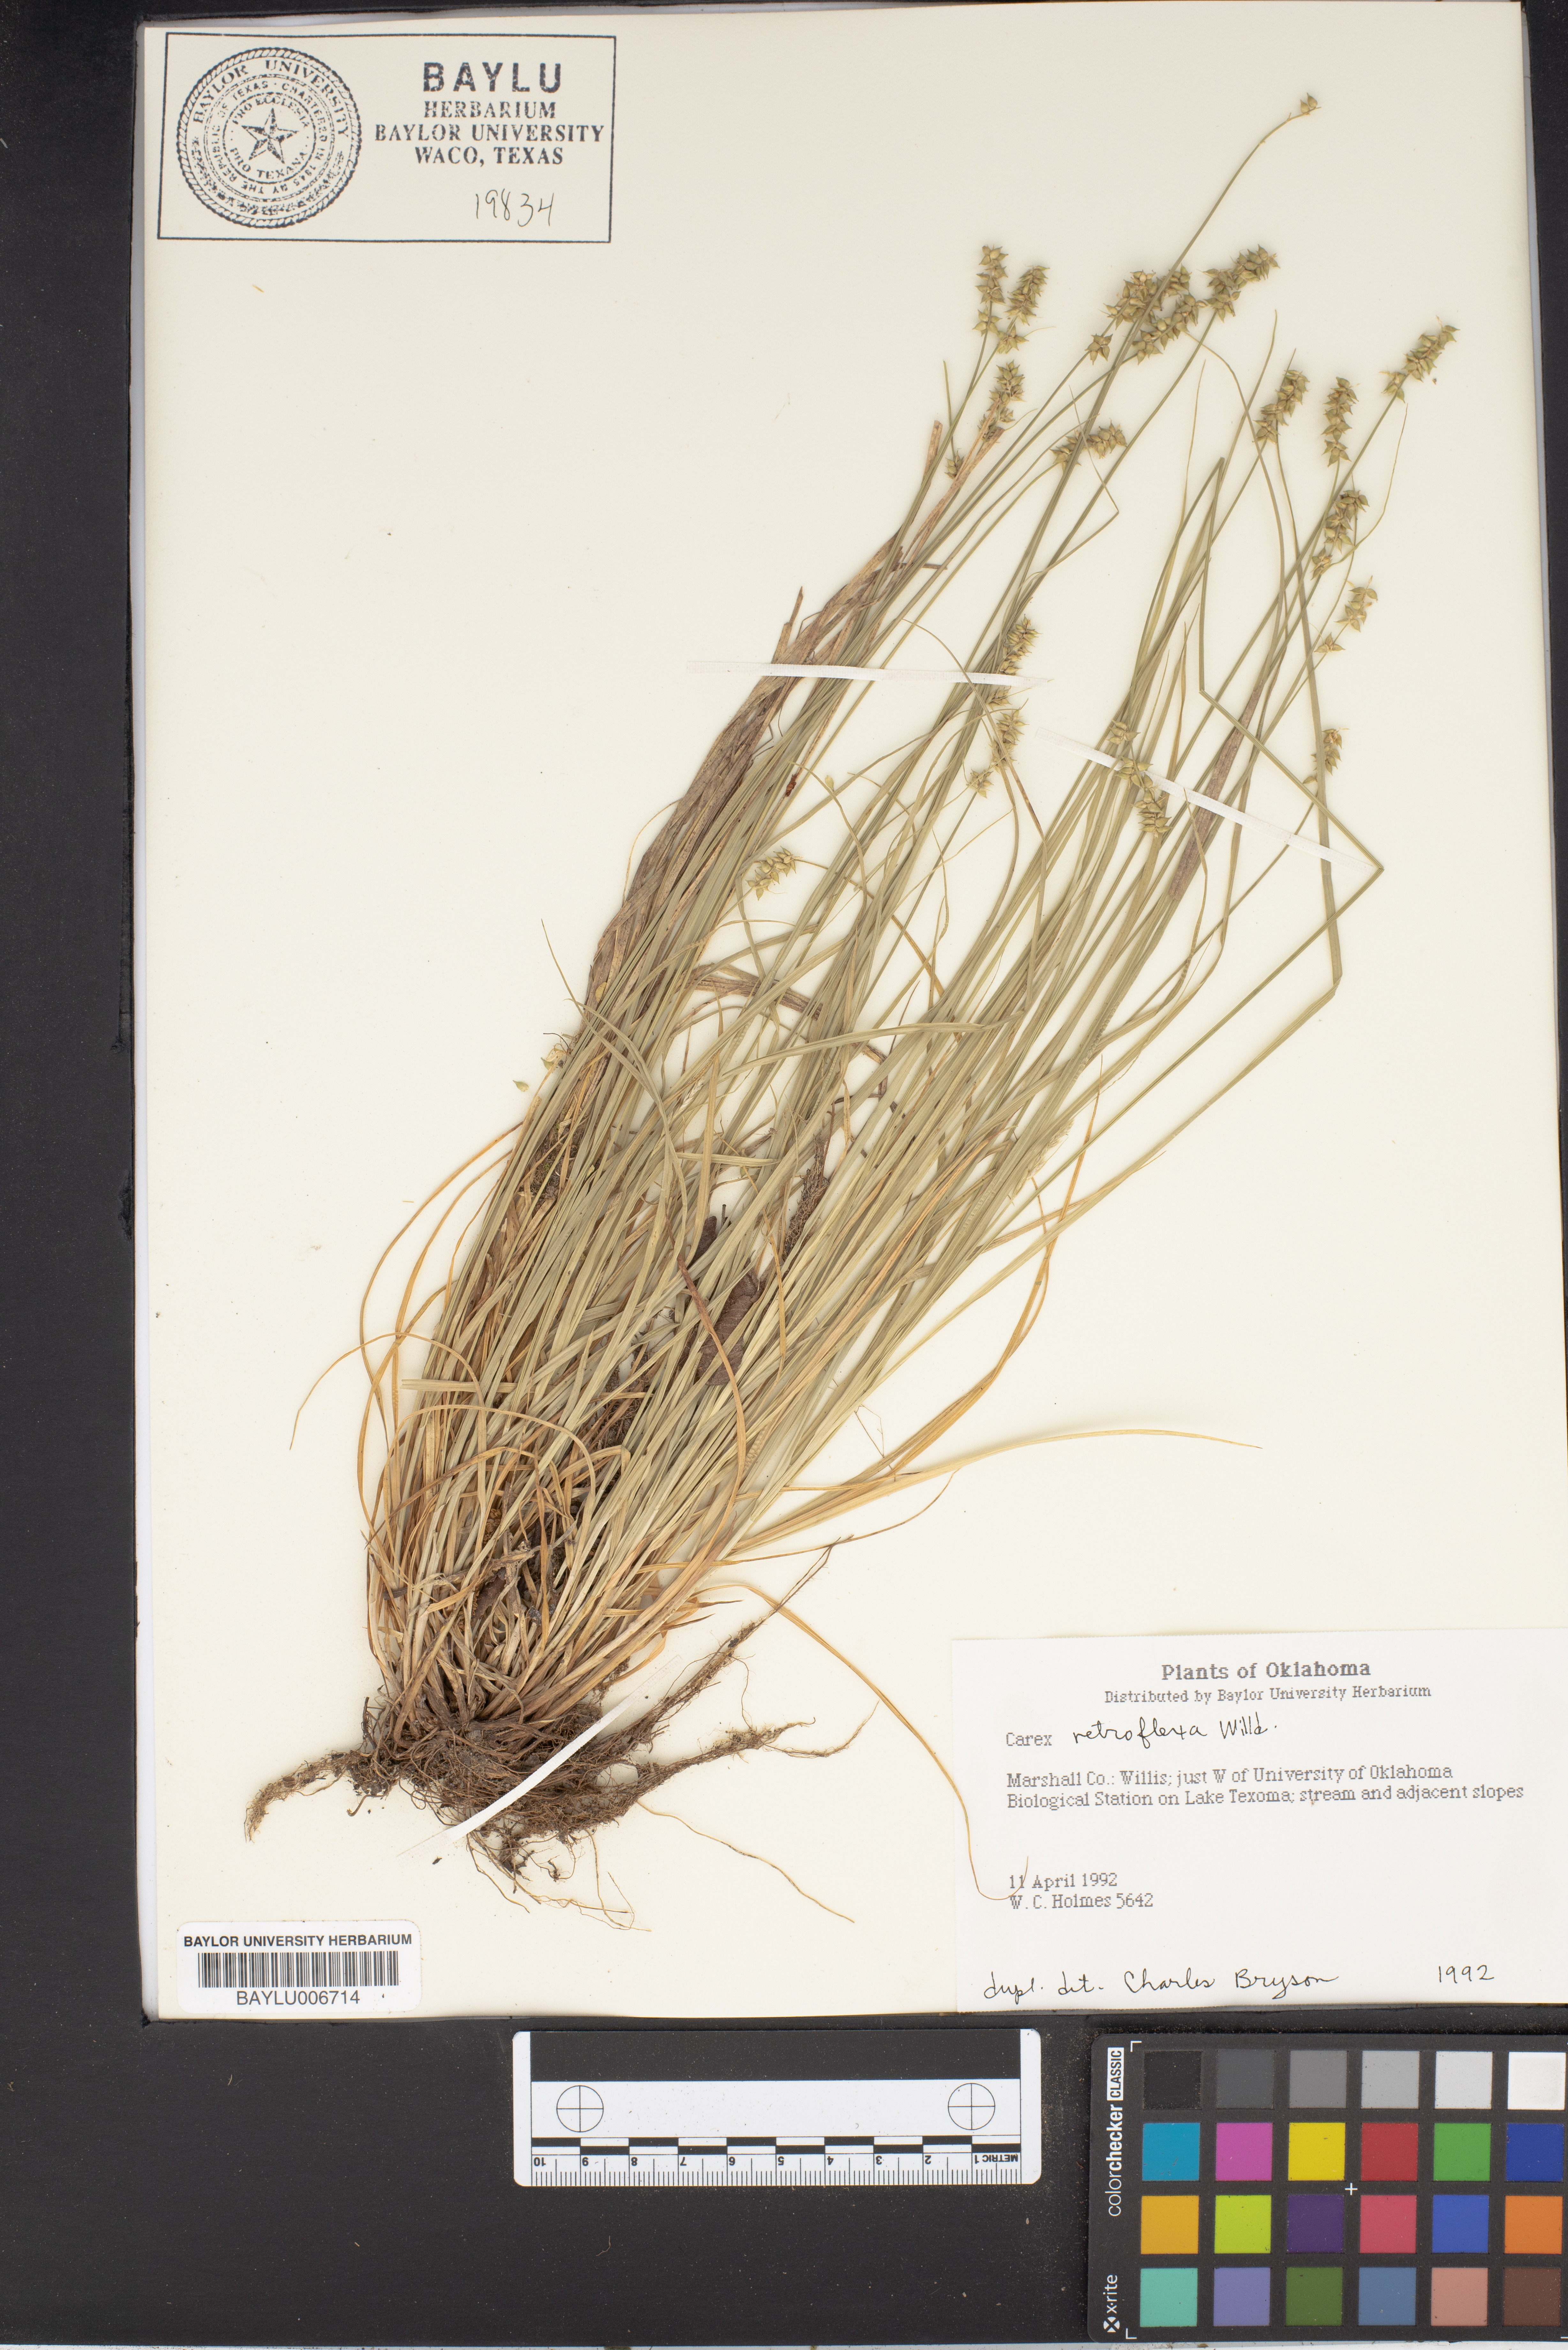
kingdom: Plantae
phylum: Tracheophyta
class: Liliopsida
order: Poales
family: Cyperaceae
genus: Carex
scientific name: Carex retroflexa
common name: Reflexed sedge
